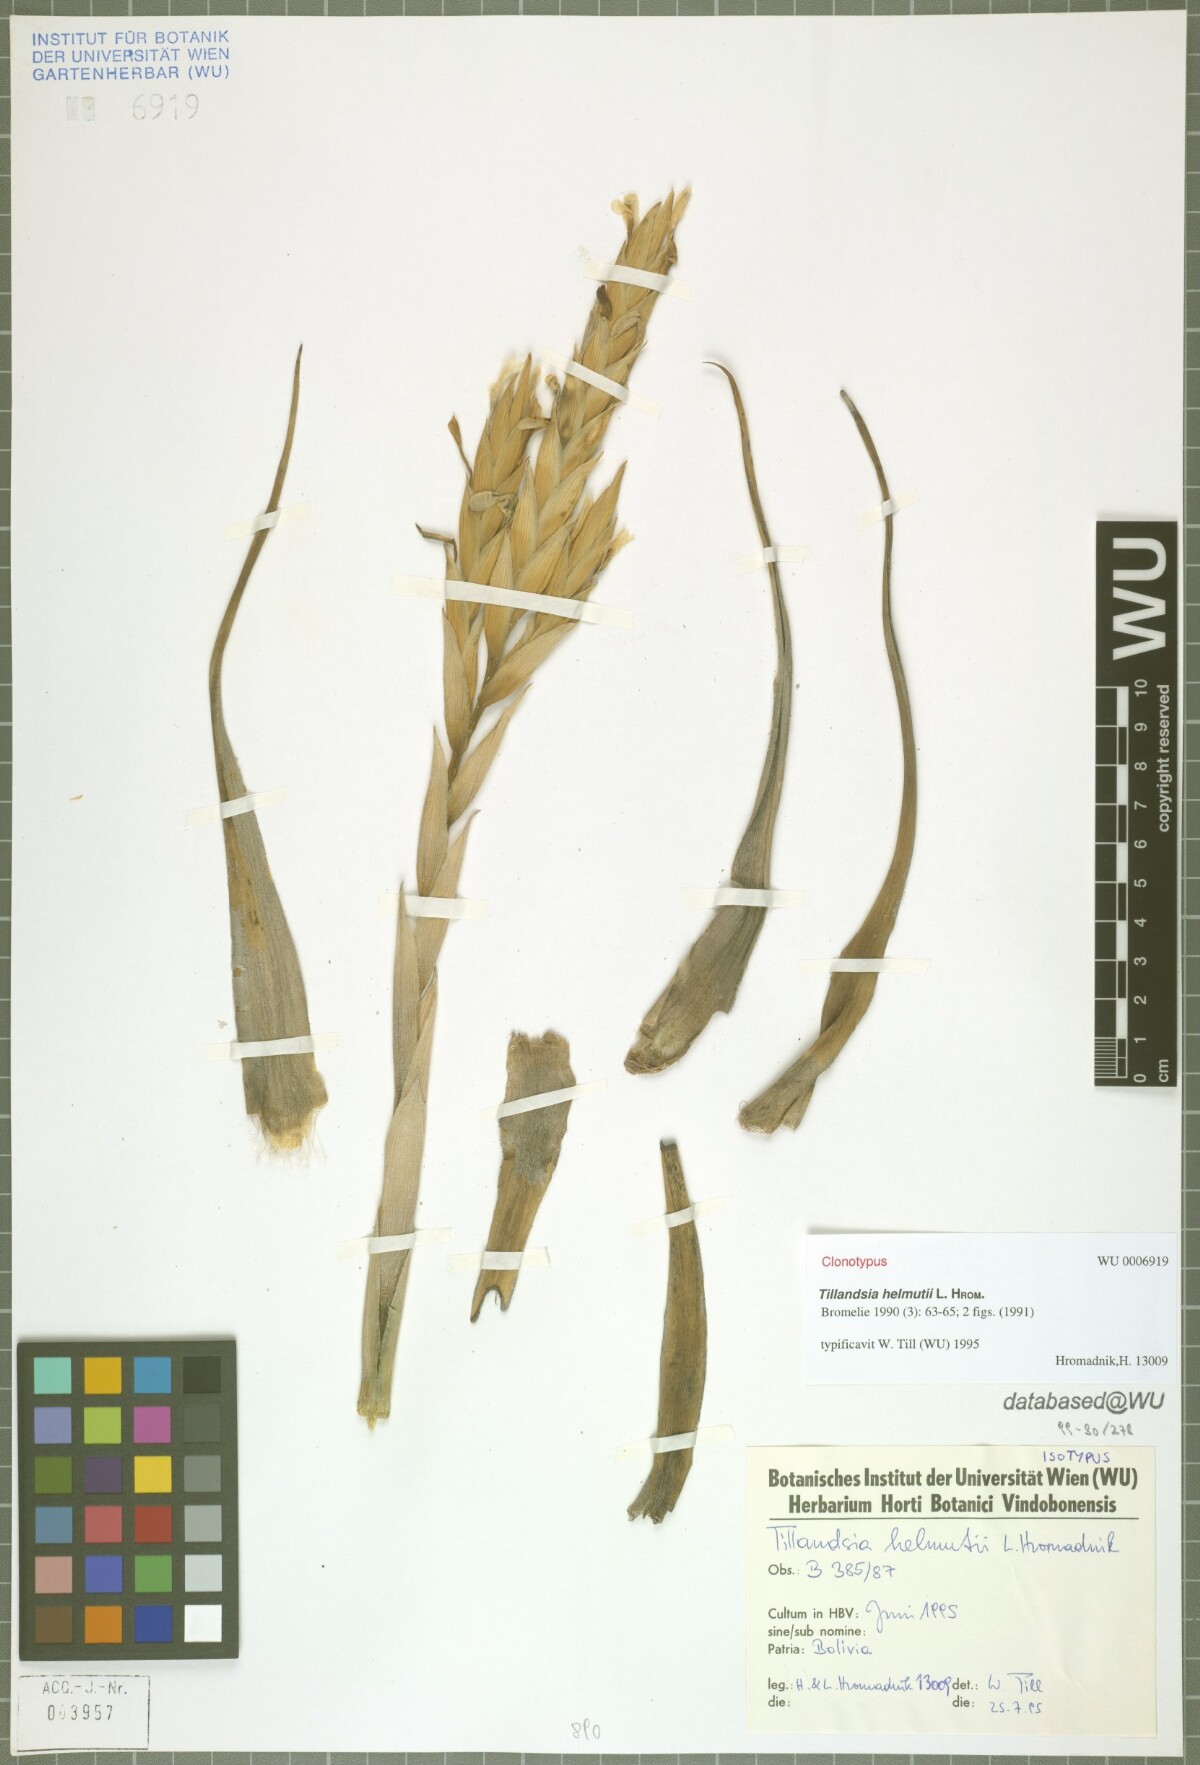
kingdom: Plantae
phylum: Tracheophyta
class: Liliopsida
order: Poales
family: Bromeliaceae
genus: Tillandsia
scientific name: Tillandsia helmutii
